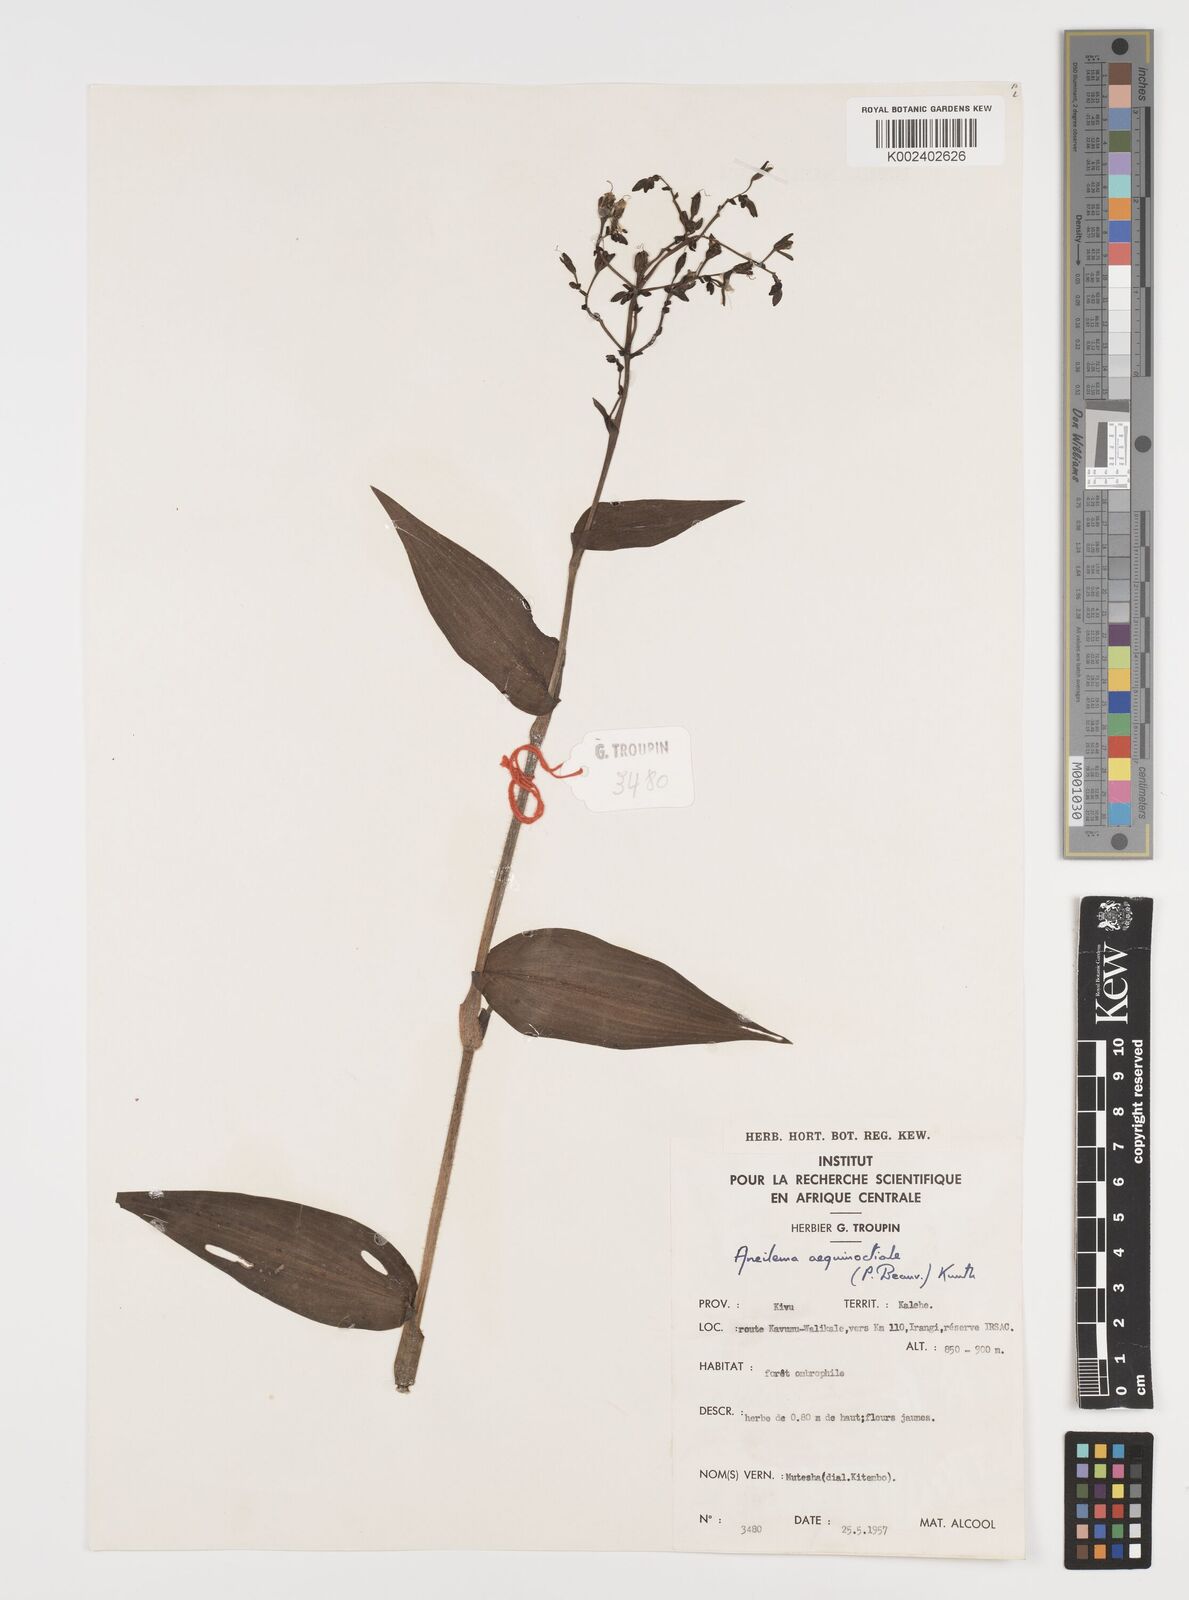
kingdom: Plantae
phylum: Tracheophyta
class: Liliopsida
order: Commelinales
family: Commelinaceae
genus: Aneilema
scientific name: Aneilema aequinoctiale
